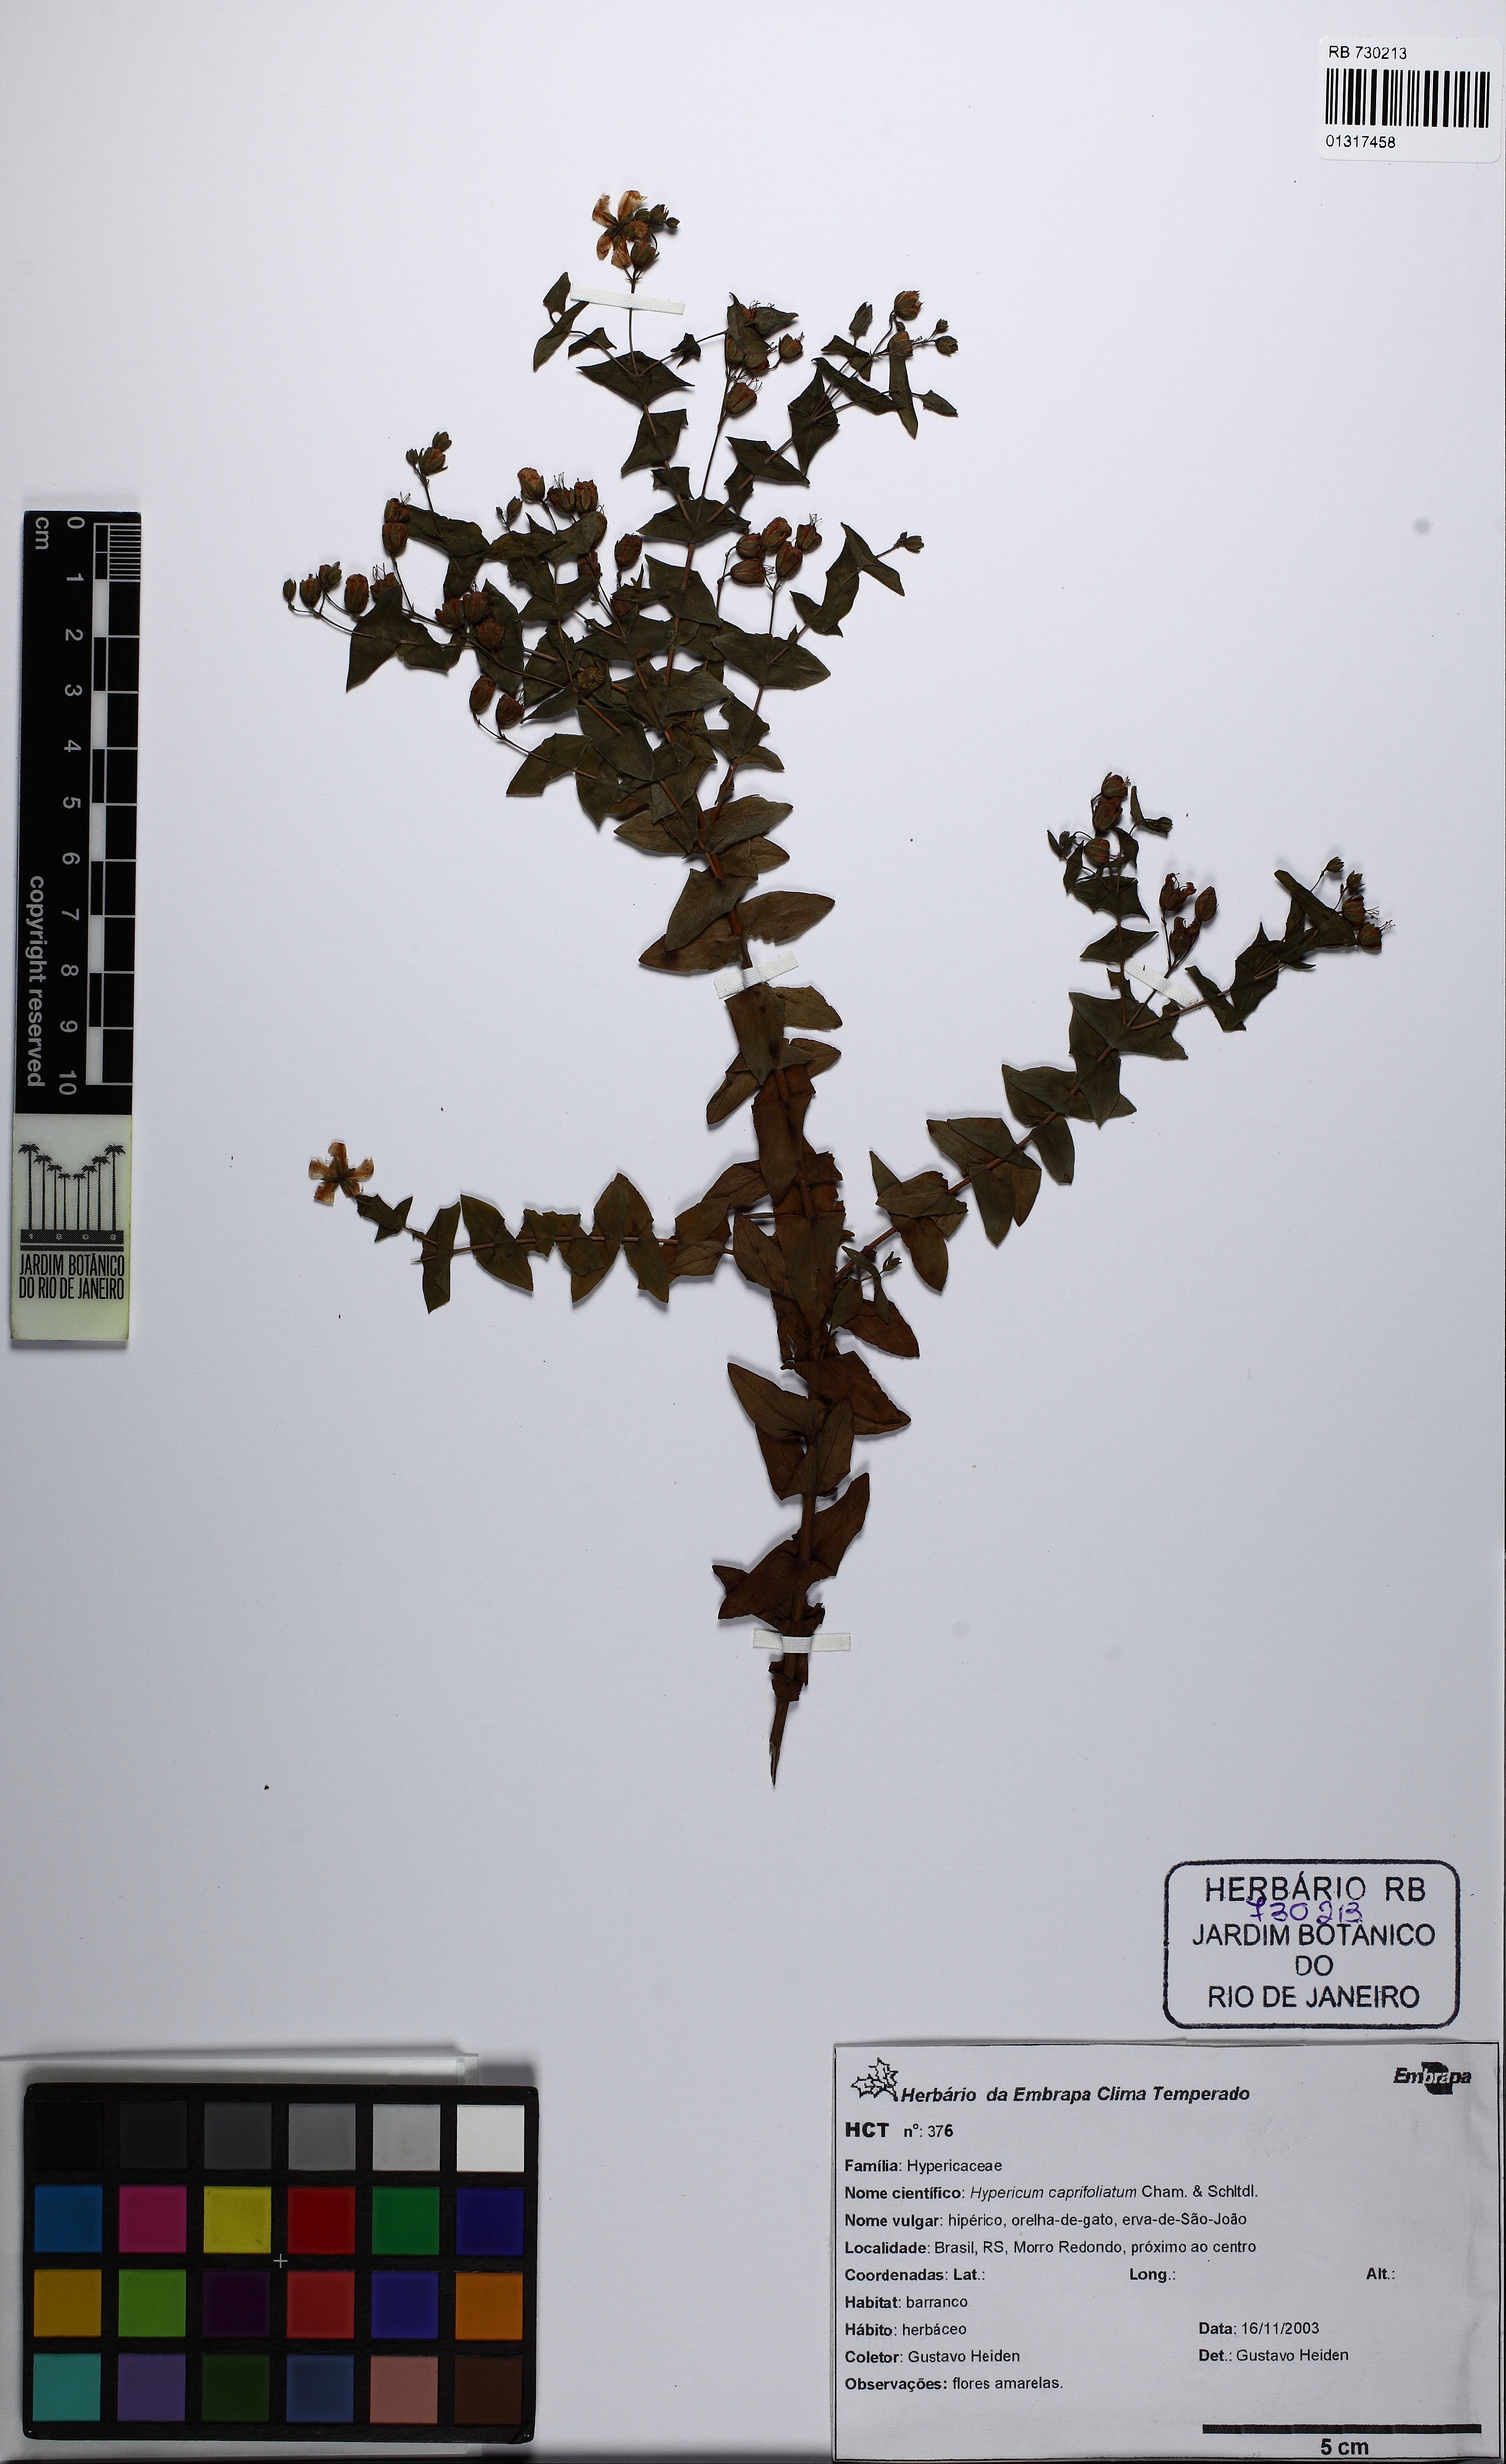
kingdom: Plantae
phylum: Tracheophyta
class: Magnoliopsida
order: Malpighiales
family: Hypericaceae
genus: Hypericum
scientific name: Hypericum caprifoliatum
